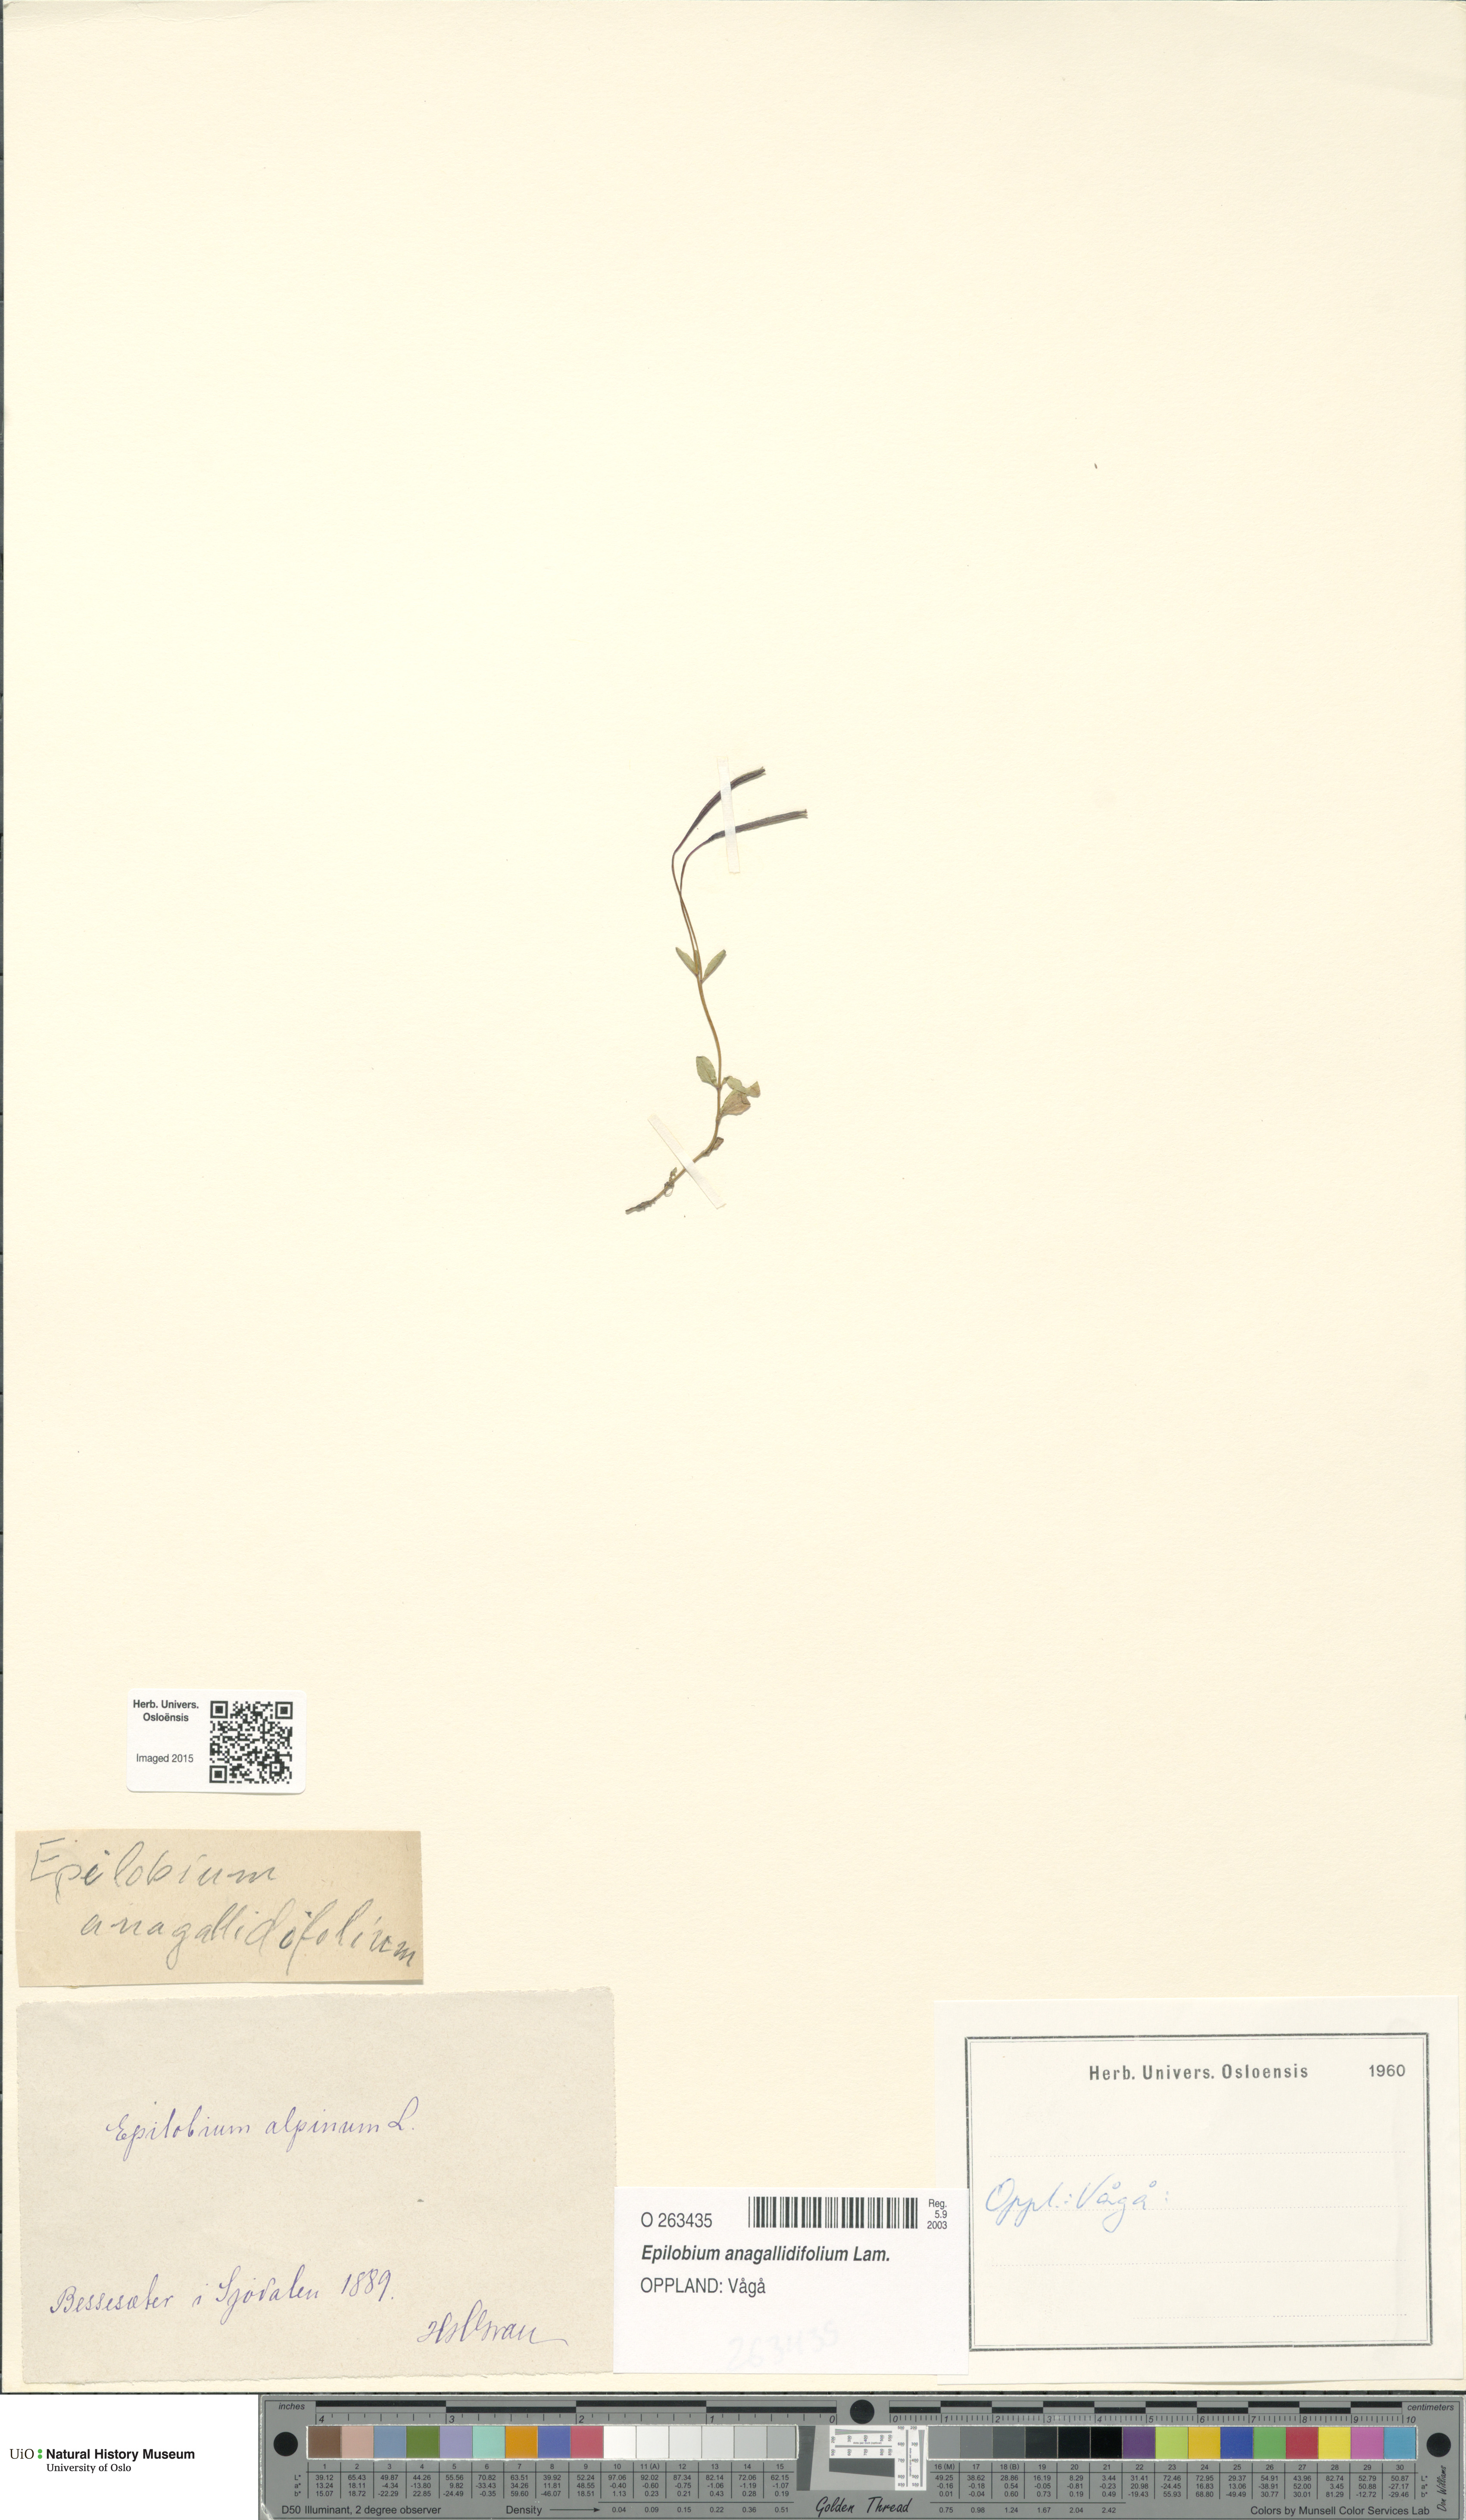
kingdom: Plantae
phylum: Tracheophyta
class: Magnoliopsida
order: Myrtales
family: Onagraceae
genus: Epilobium
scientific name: Epilobium anagallidifolium
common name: Alpine willowherb
